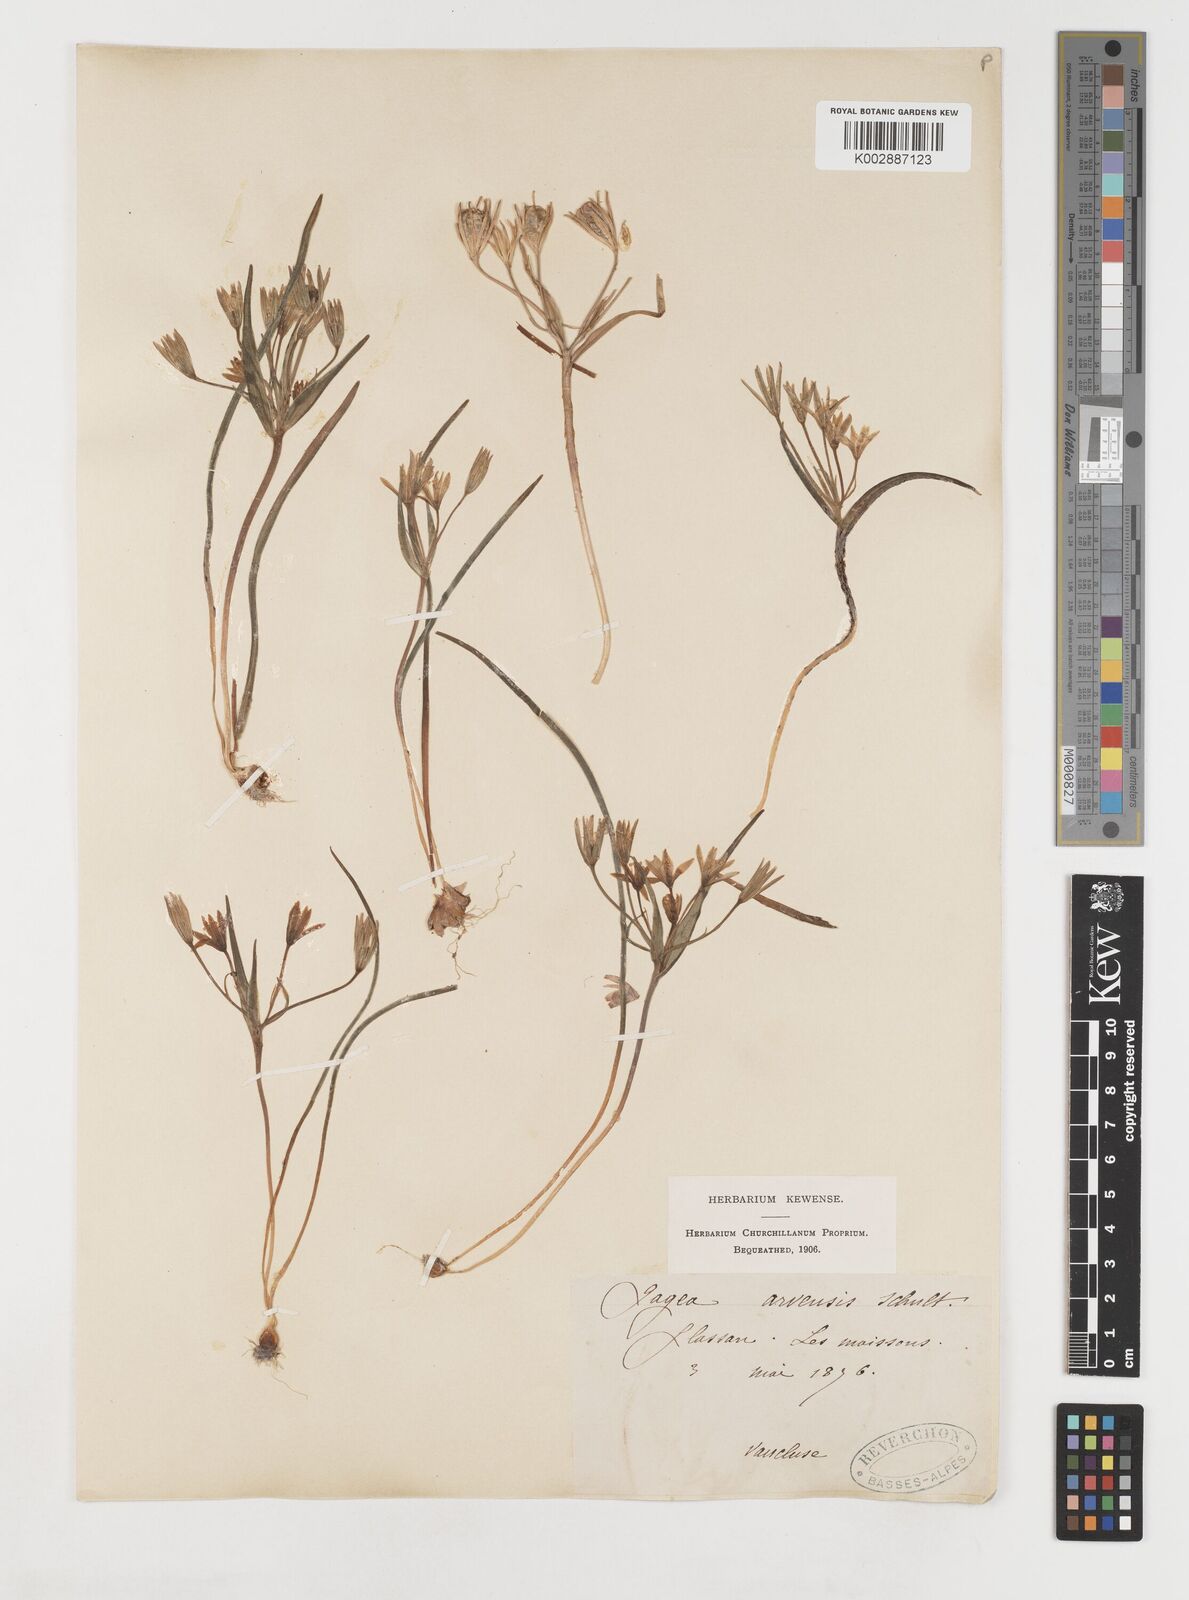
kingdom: Plantae
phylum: Tracheophyta
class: Liliopsida
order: Liliales
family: Liliaceae
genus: Gagea
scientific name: Gagea villosa
